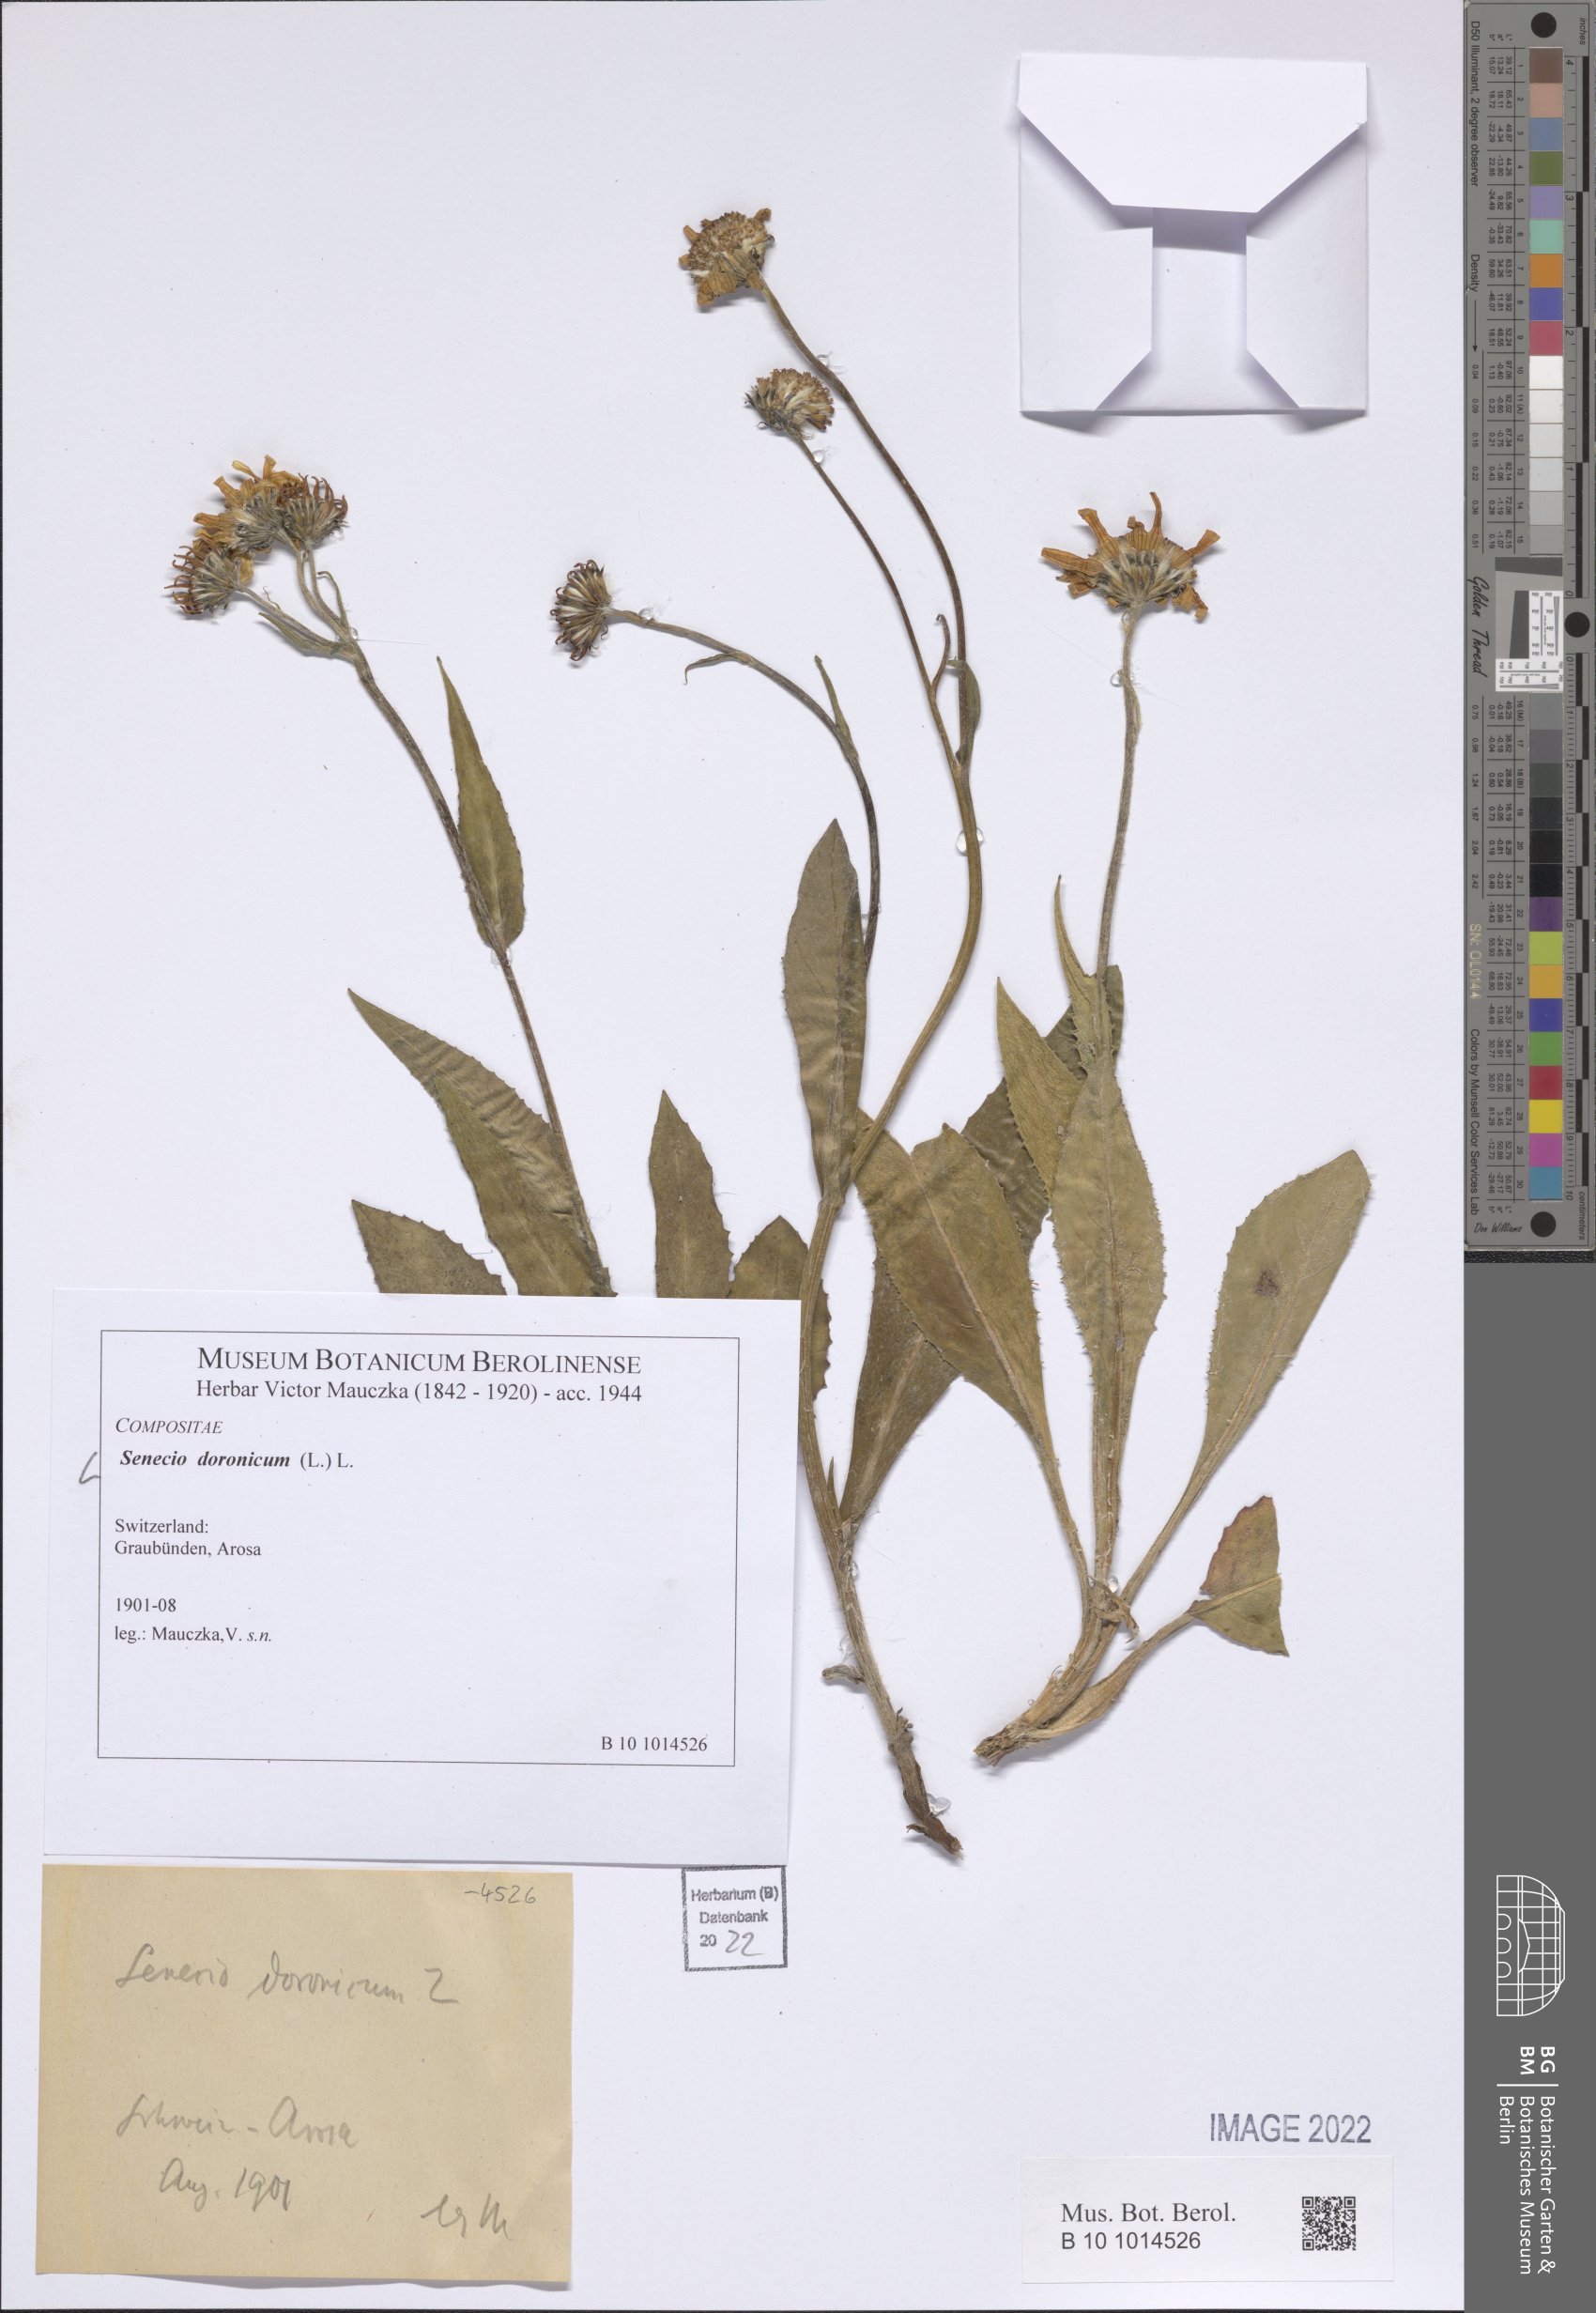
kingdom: Plantae
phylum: Tracheophyta
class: Magnoliopsida
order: Asterales
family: Asteraceae
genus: Senecio
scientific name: Senecio doronicum
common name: Chamois ragwort
